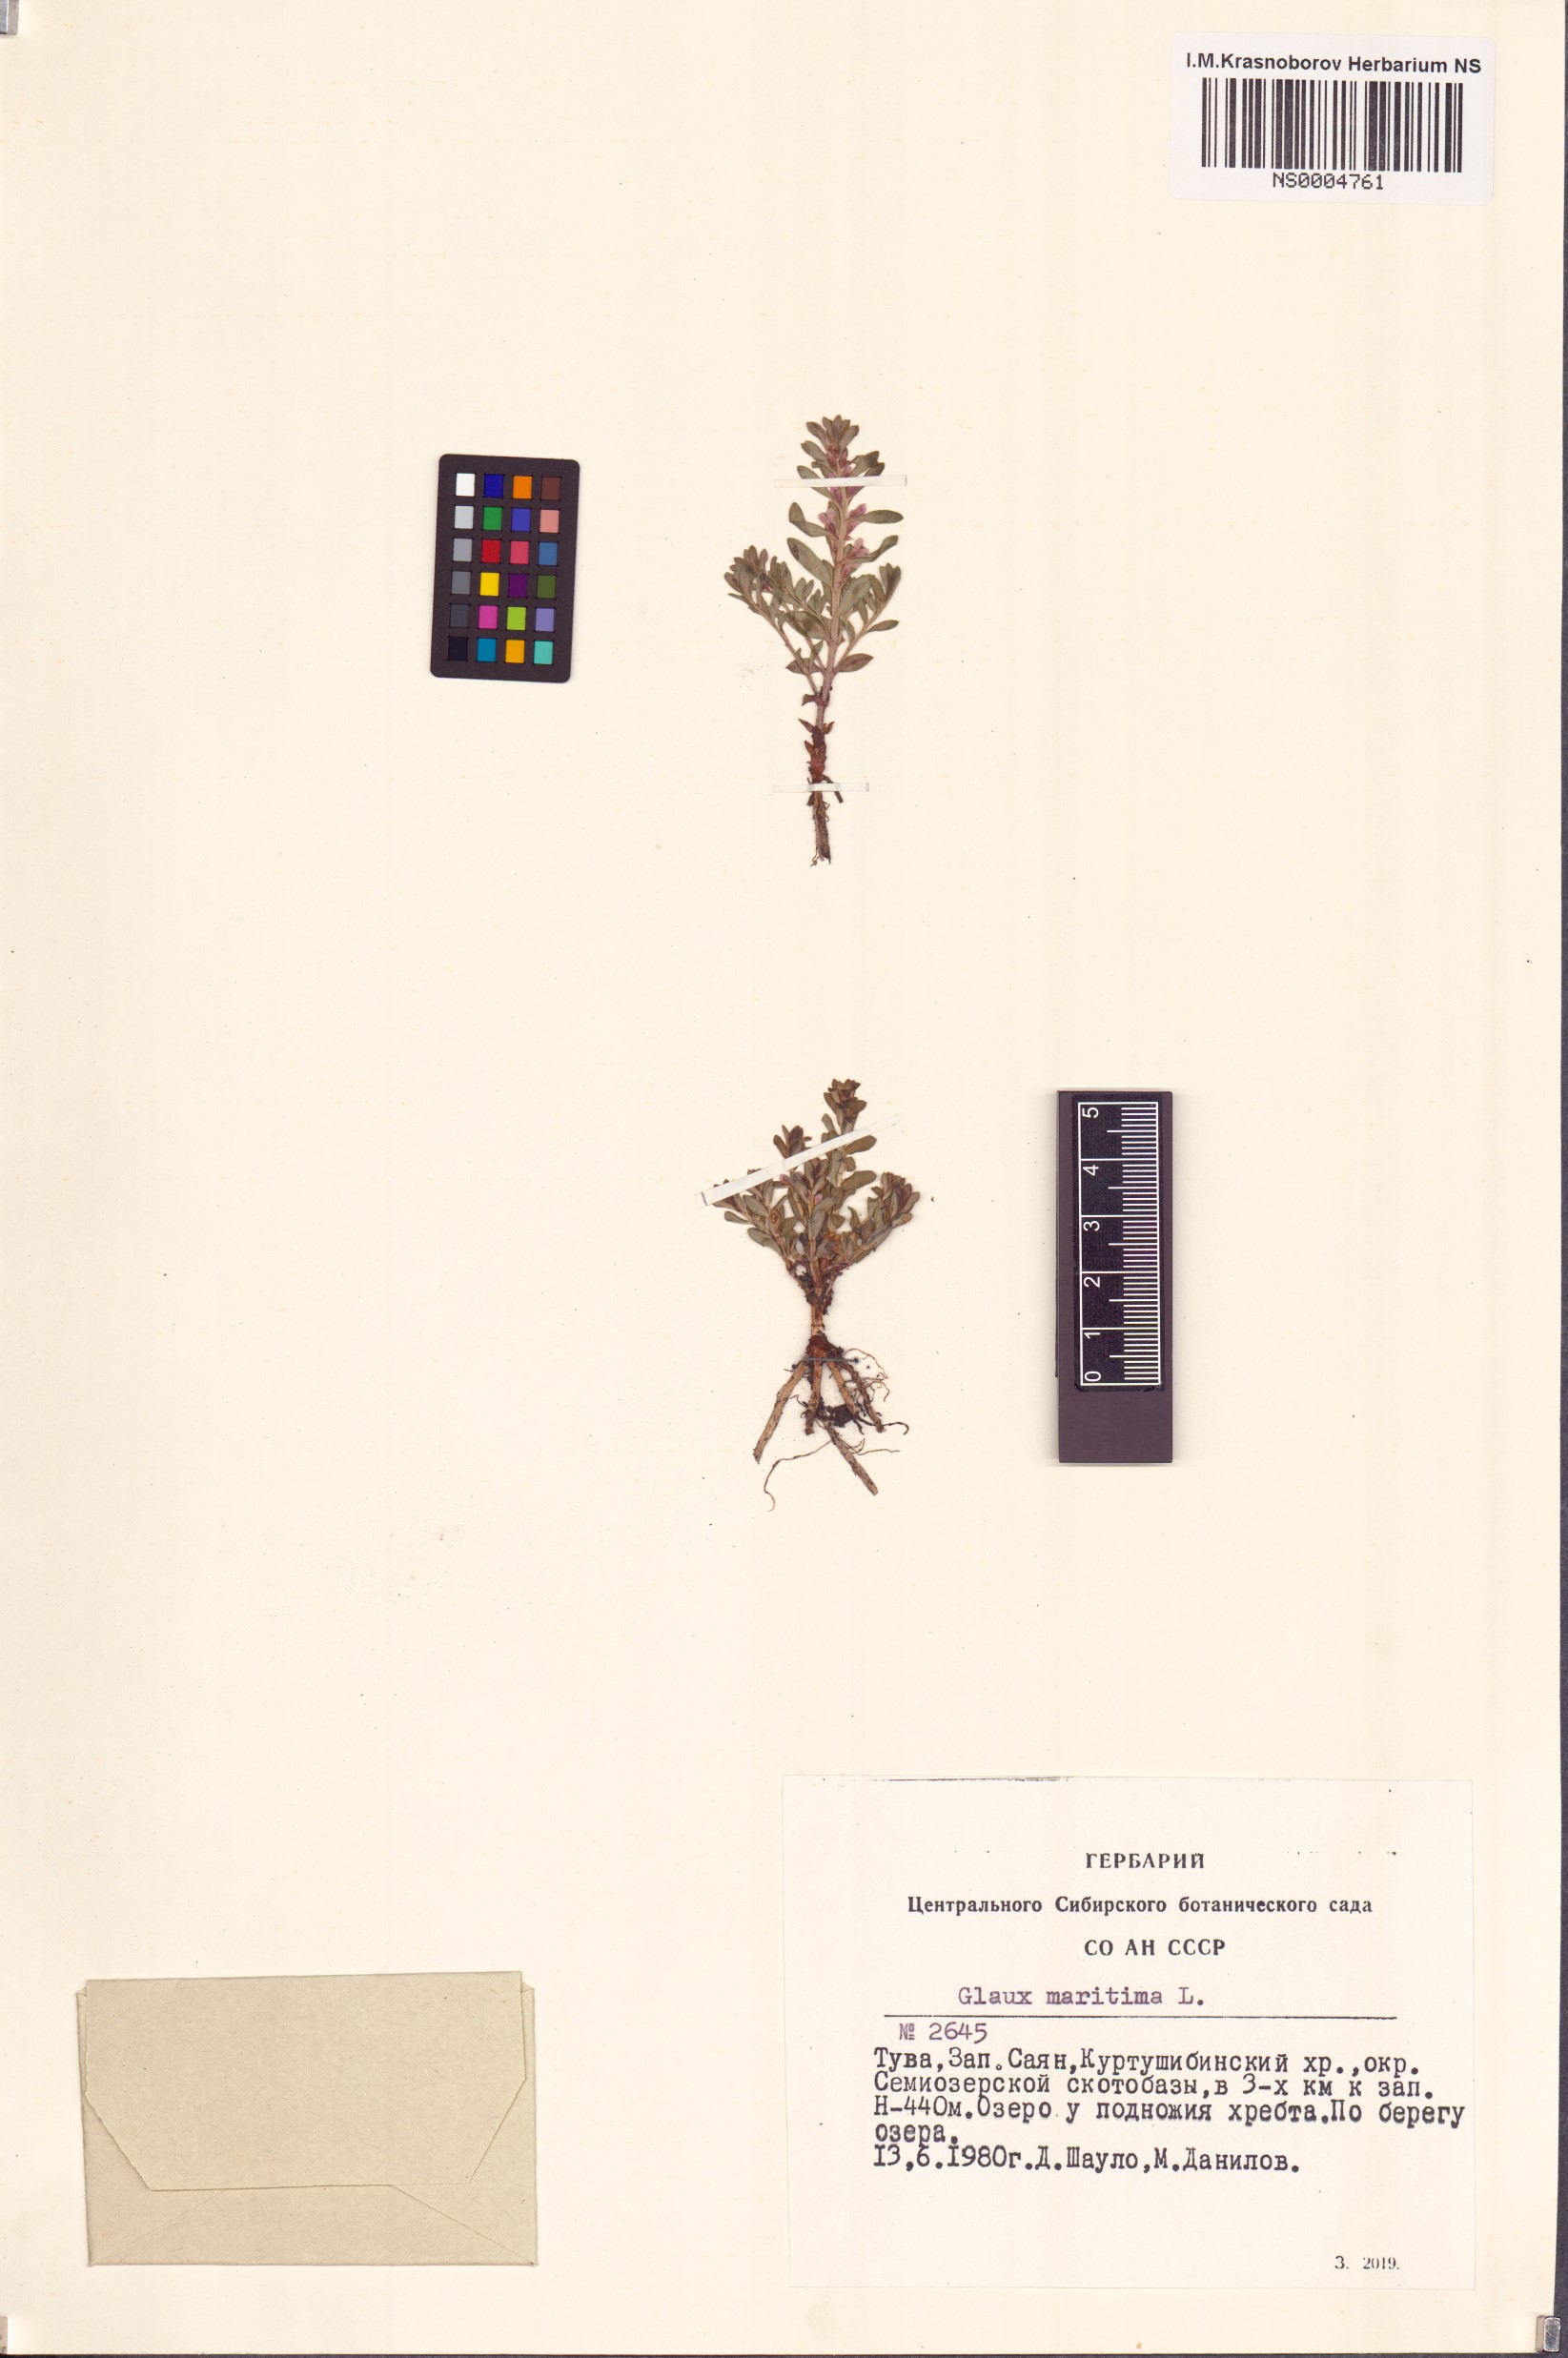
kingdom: Plantae
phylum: Tracheophyta
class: Magnoliopsida
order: Ericales
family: Primulaceae
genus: Lysimachia
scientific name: Lysimachia maritima
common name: Sea milkwort
